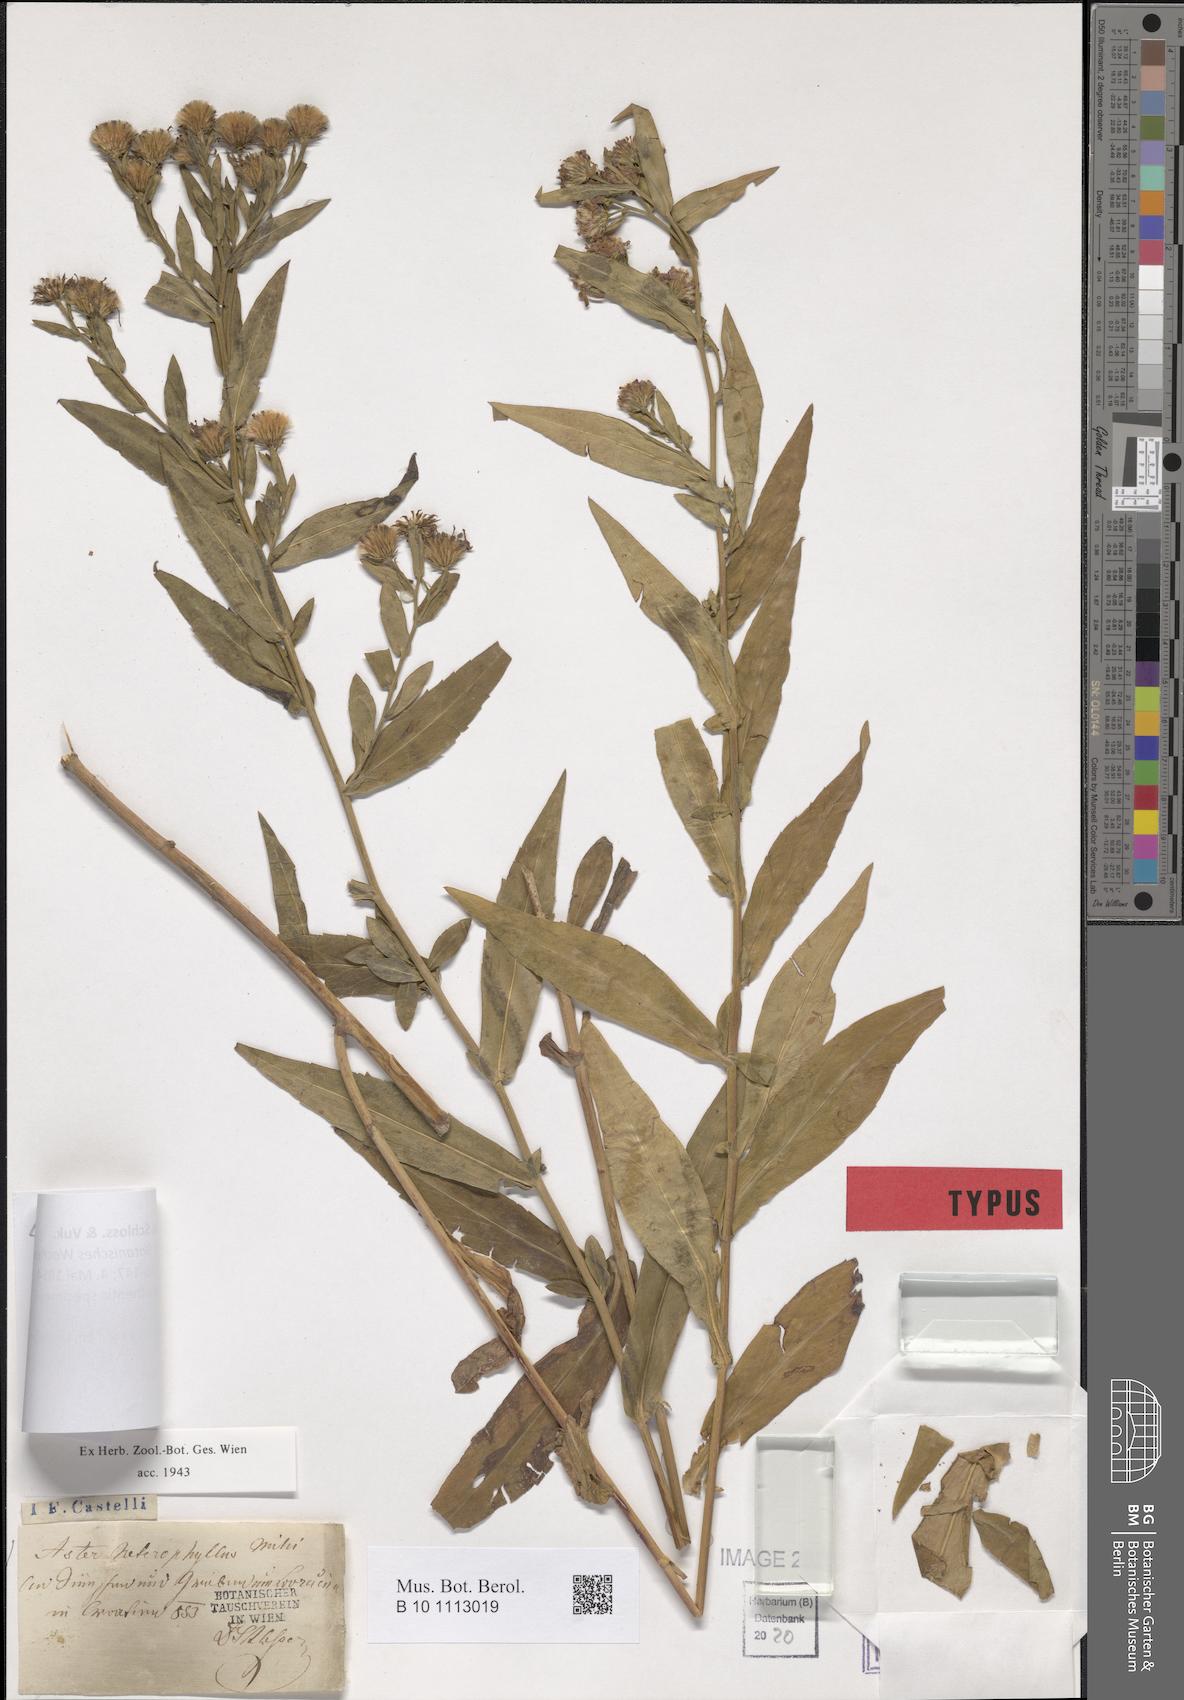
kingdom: Plantae
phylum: Tracheophyta
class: Magnoliopsida
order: Asterales
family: Asteraceae
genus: Aster
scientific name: Aster heterophyllus
